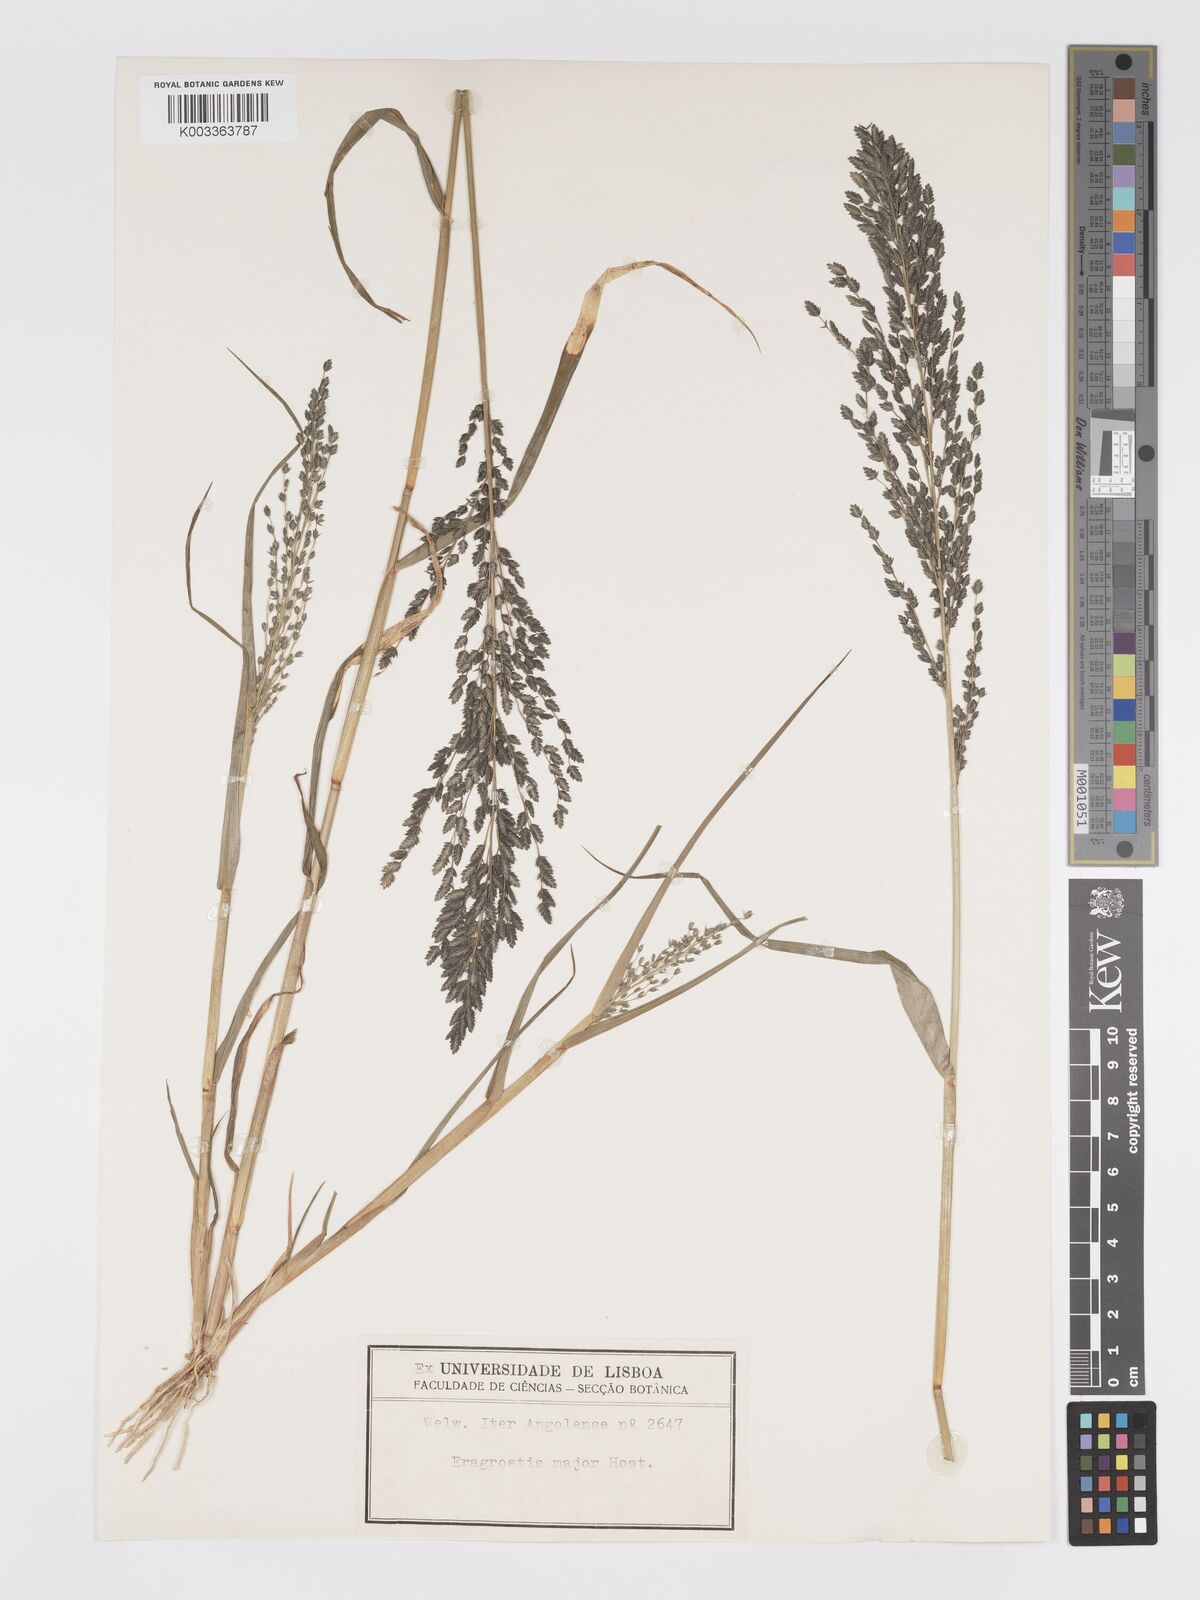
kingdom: Plantae
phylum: Tracheophyta
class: Liliopsida
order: Poales
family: Poaceae
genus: Eragrostis
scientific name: Eragrostis cilianensis
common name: Stinkgrass
